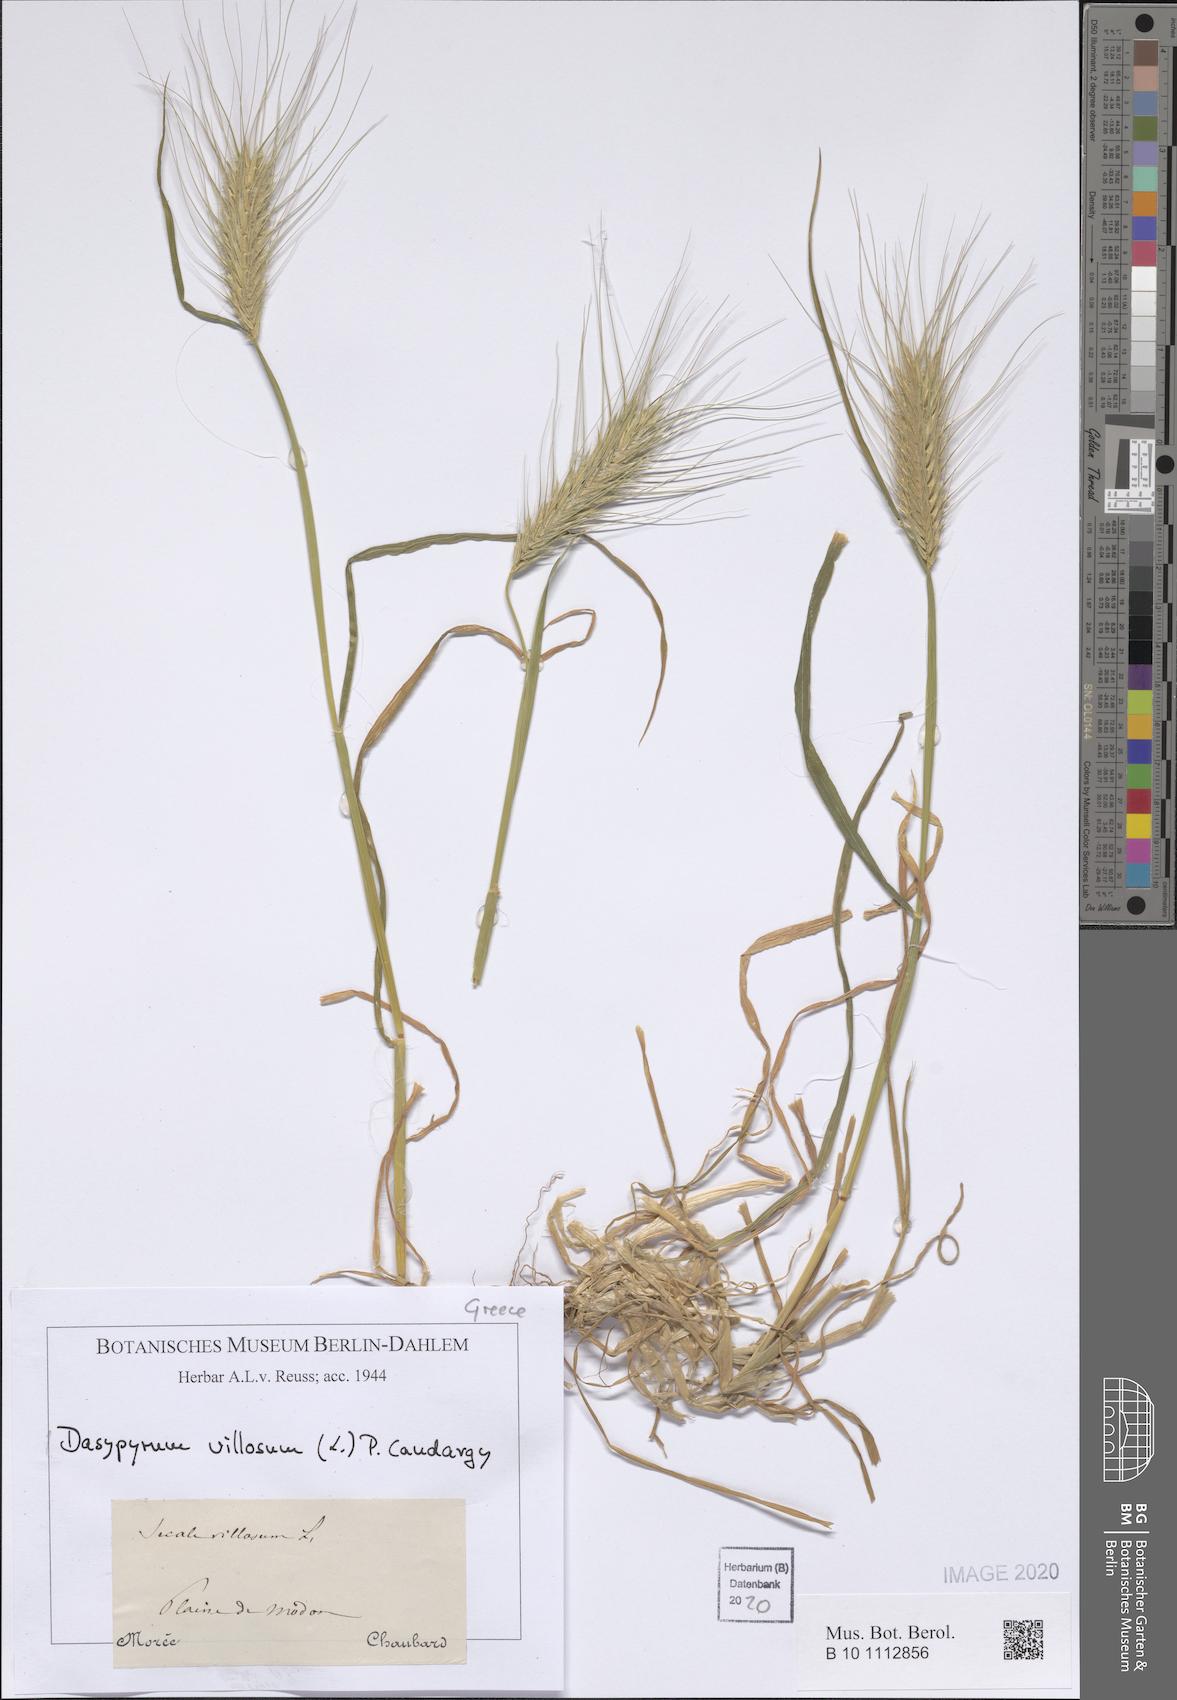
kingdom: Plantae
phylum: Tracheophyta
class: Liliopsida
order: Poales
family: Poaceae
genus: Dasypyrum
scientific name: Dasypyrum villosum
